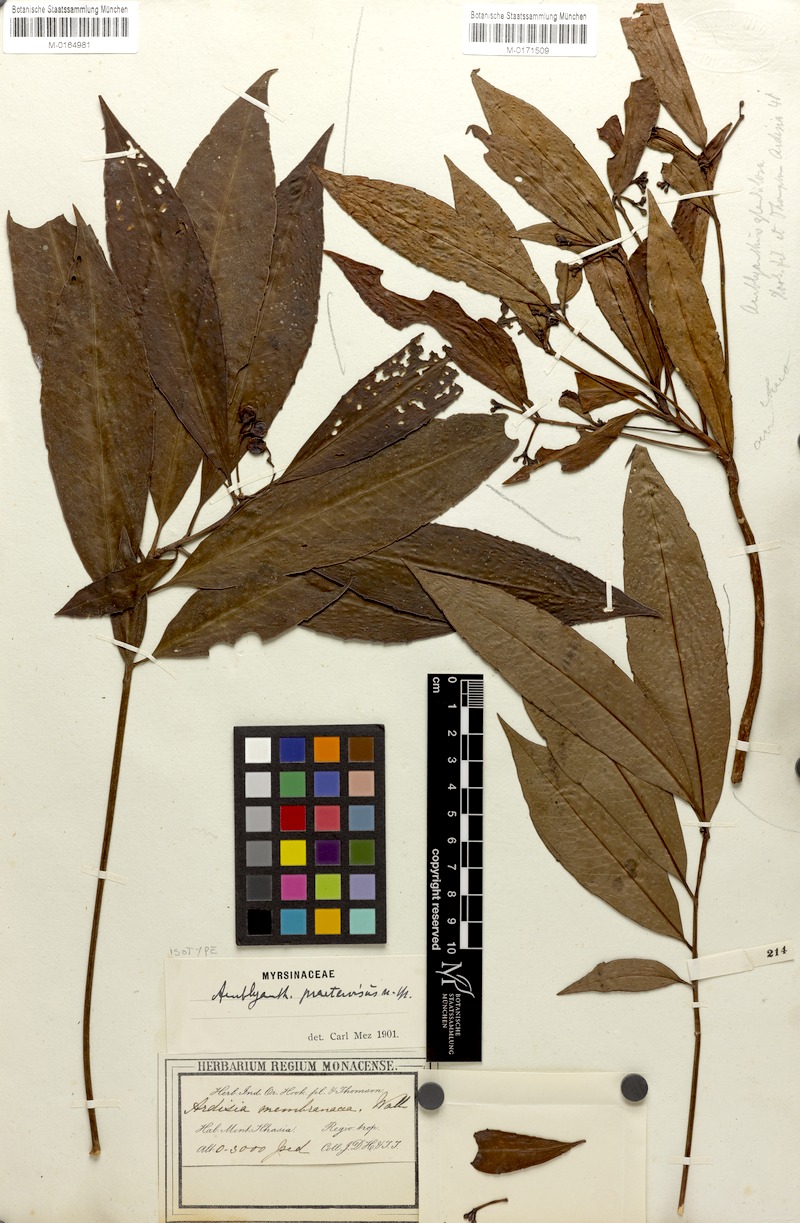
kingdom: Plantae
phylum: Tracheophyta
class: Magnoliopsida
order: Ericales
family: Primulaceae
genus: Amblyanthus
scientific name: Amblyanthus praetervisus
